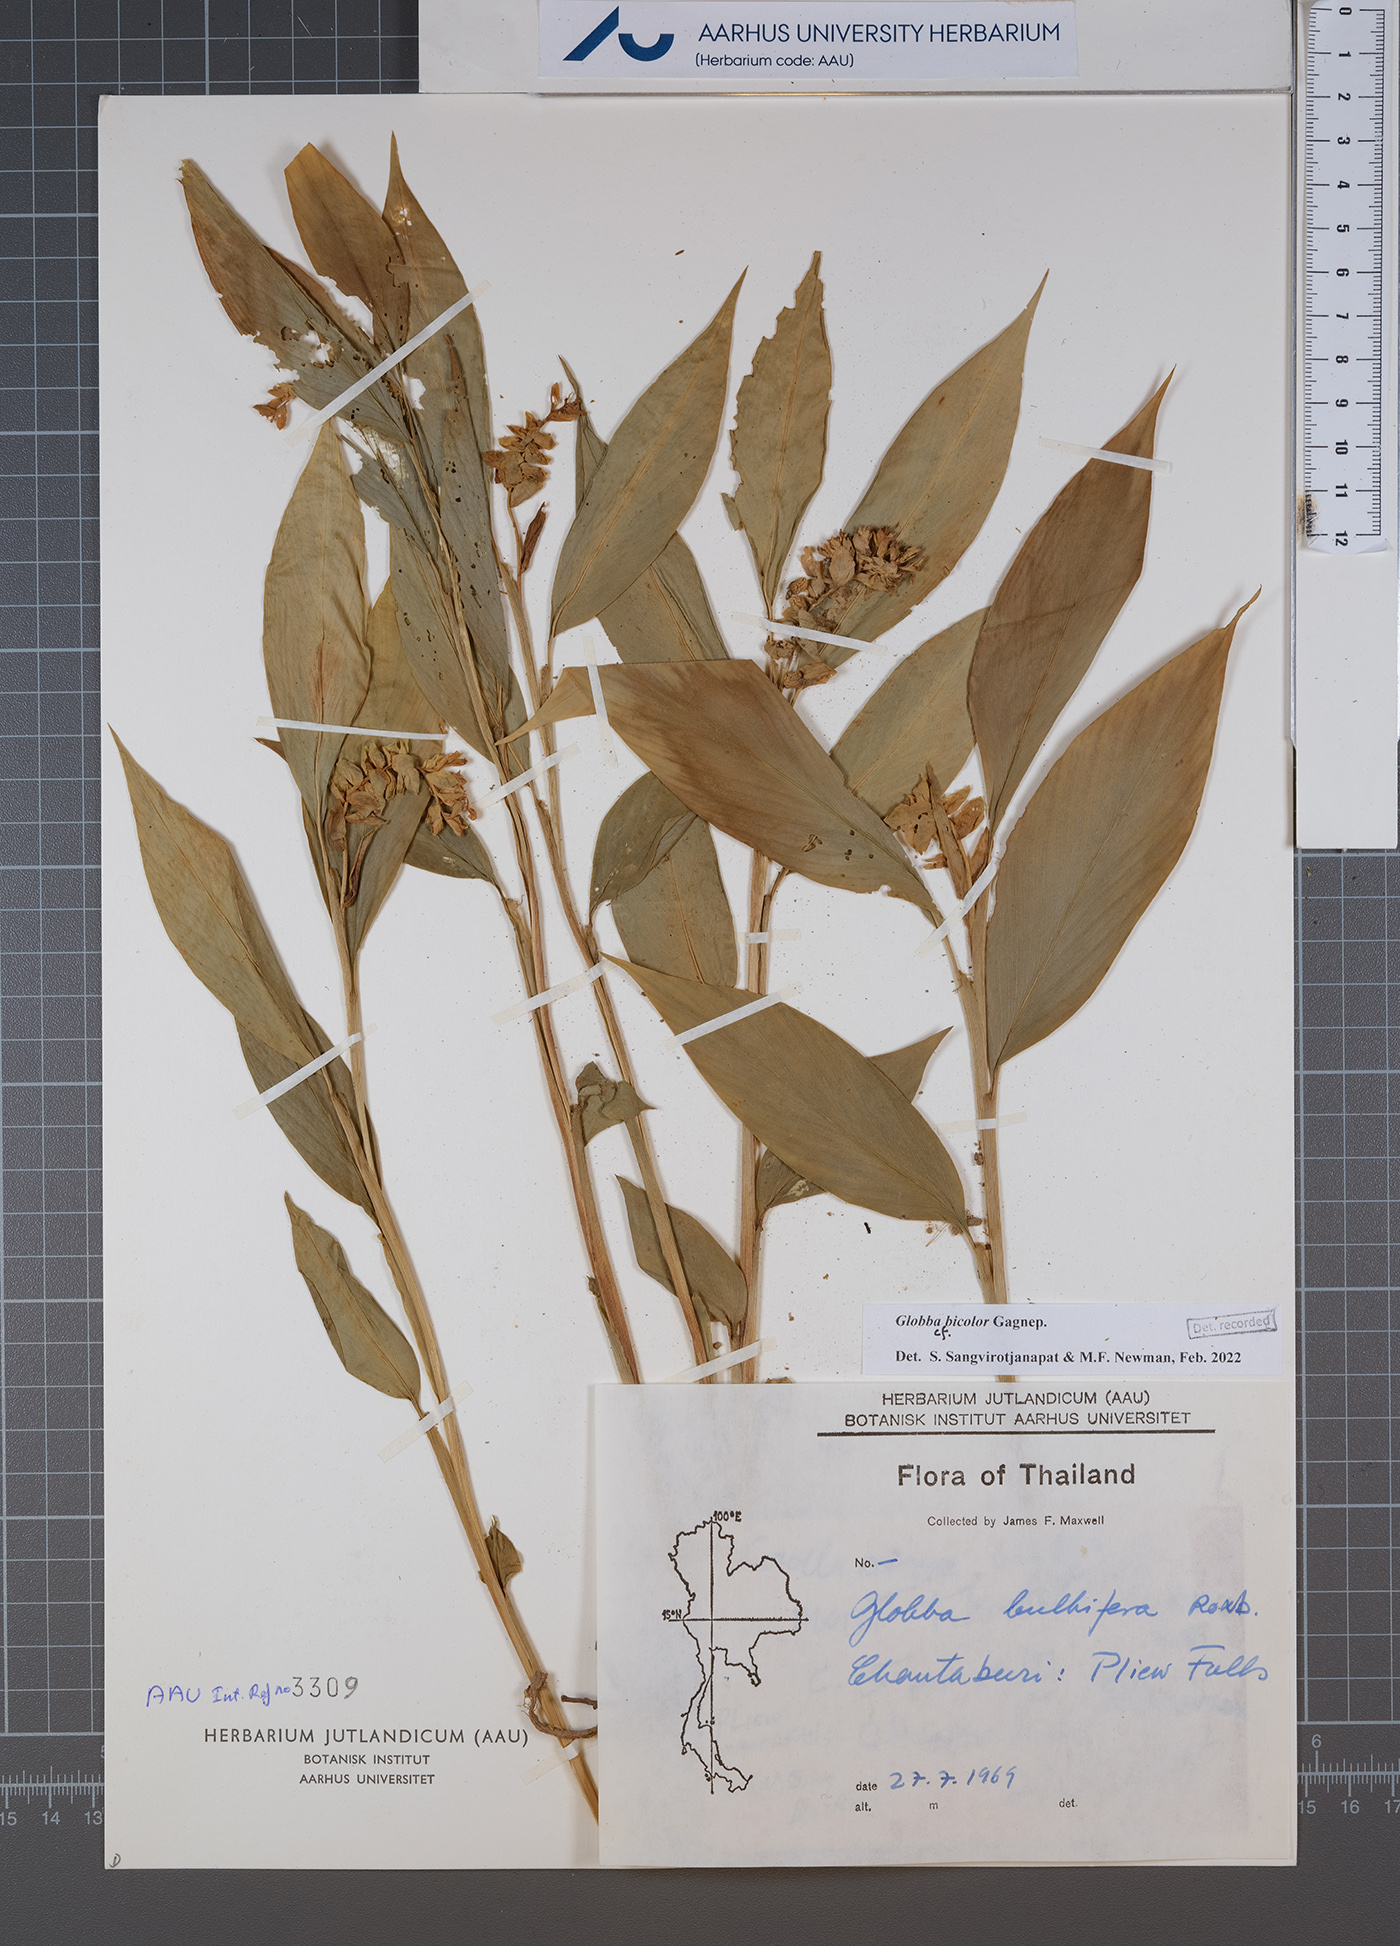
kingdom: Plantae
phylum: Tracheophyta
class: Liliopsida
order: Zingiberales
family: Zingiberaceae
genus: Globba
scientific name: Globba bicolor
